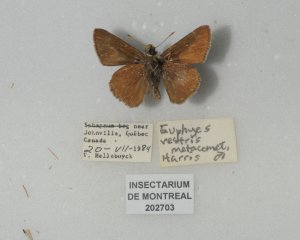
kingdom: Animalia
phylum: Arthropoda
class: Insecta
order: Lepidoptera
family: Hesperiidae
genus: Euphyes
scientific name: Euphyes vestris
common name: Dun Skipper
